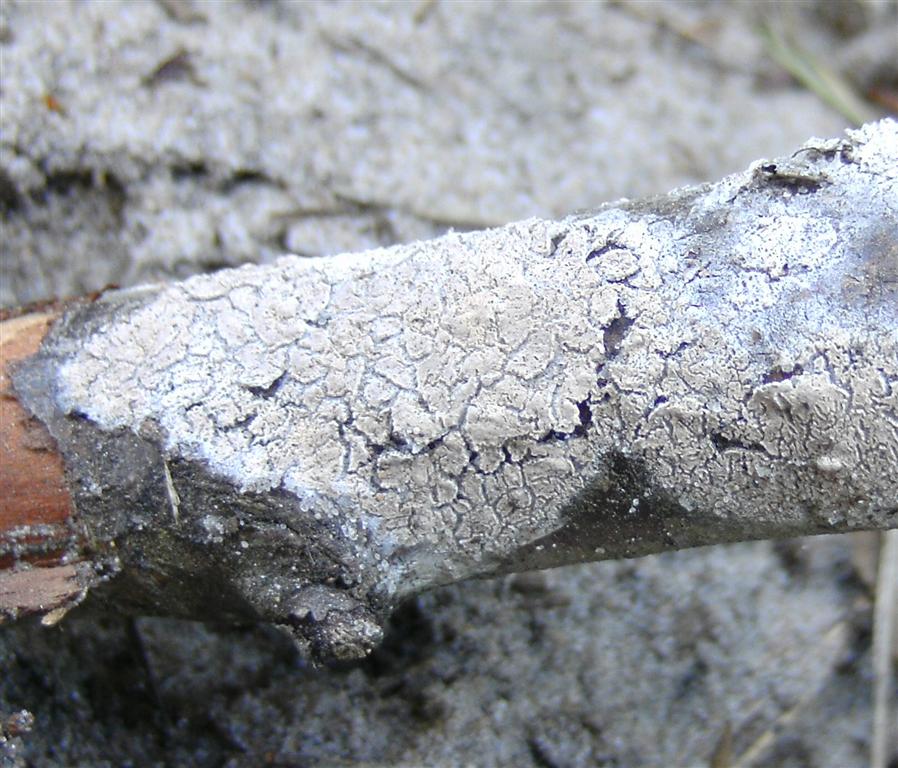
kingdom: Fungi
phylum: Basidiomycota
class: Agaricomycetes
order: Agaricales
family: Physalacriaceae
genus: Cylindrobasidium
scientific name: Cylindrobasidium evolvens
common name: sprækkehinde
